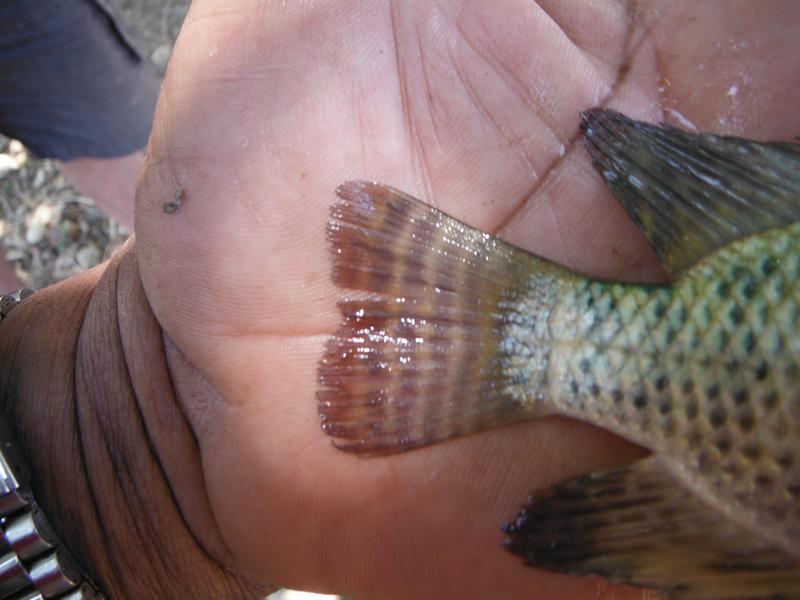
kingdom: Animalia
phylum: Chordata
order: Perciformes
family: Cichlidae
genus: Oreochromis
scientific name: Oreochromis
